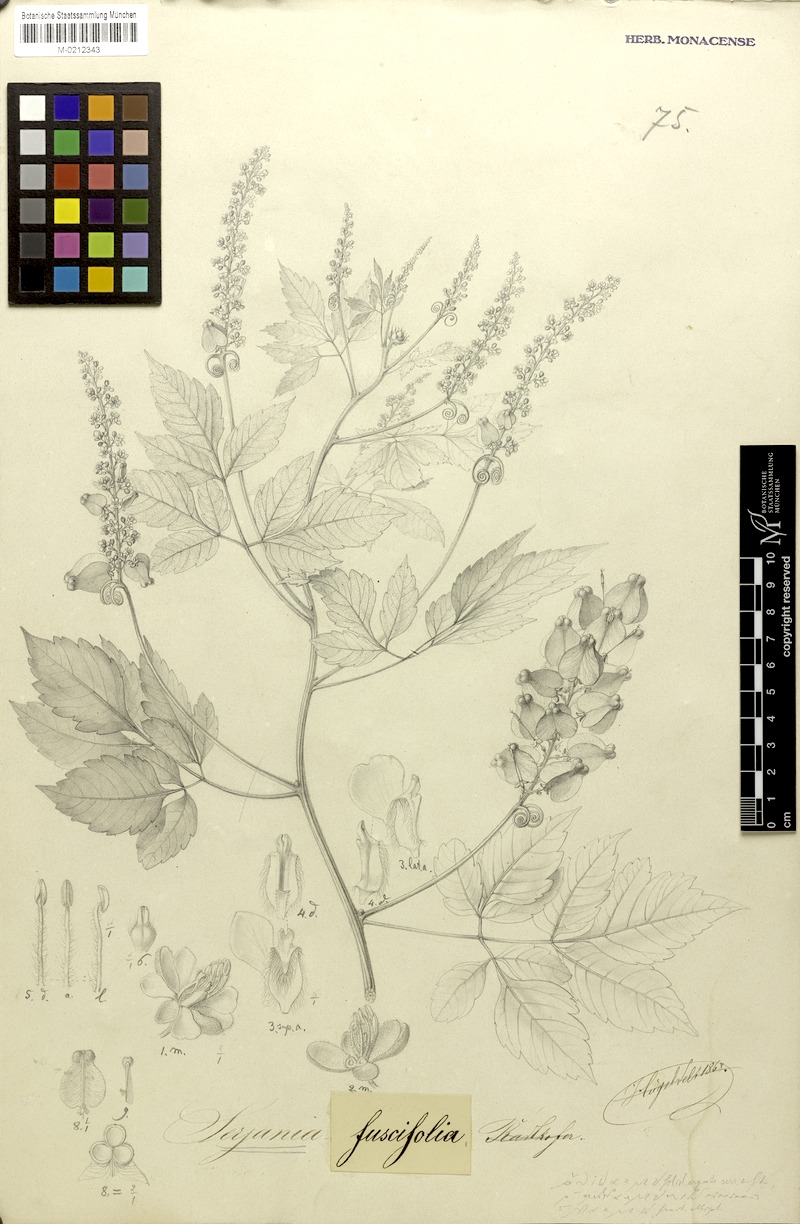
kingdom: Plantae
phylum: Tracheophyta
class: Magnoliopsida
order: Sapindales
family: Sapindaceae
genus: Serjania
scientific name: Serjania fuscifolia
